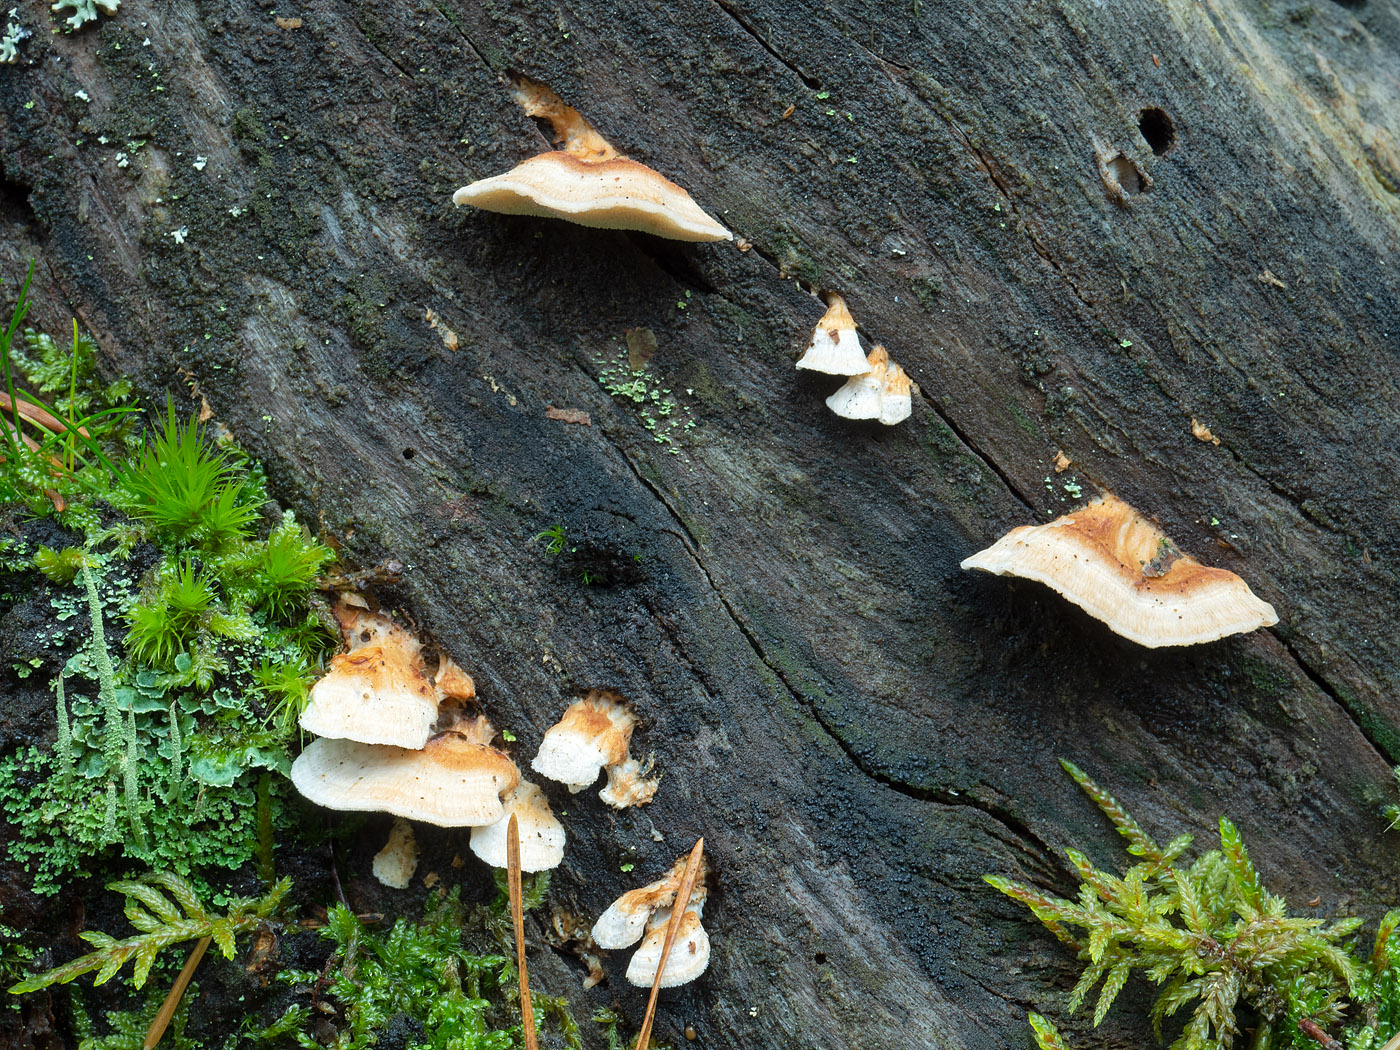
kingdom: Fungi
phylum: Basidiomycota
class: Agaricomycetes
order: Polyporales
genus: Fuscopostia
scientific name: Fuscopostia leucomallella
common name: gulbrun kødporesvamp
